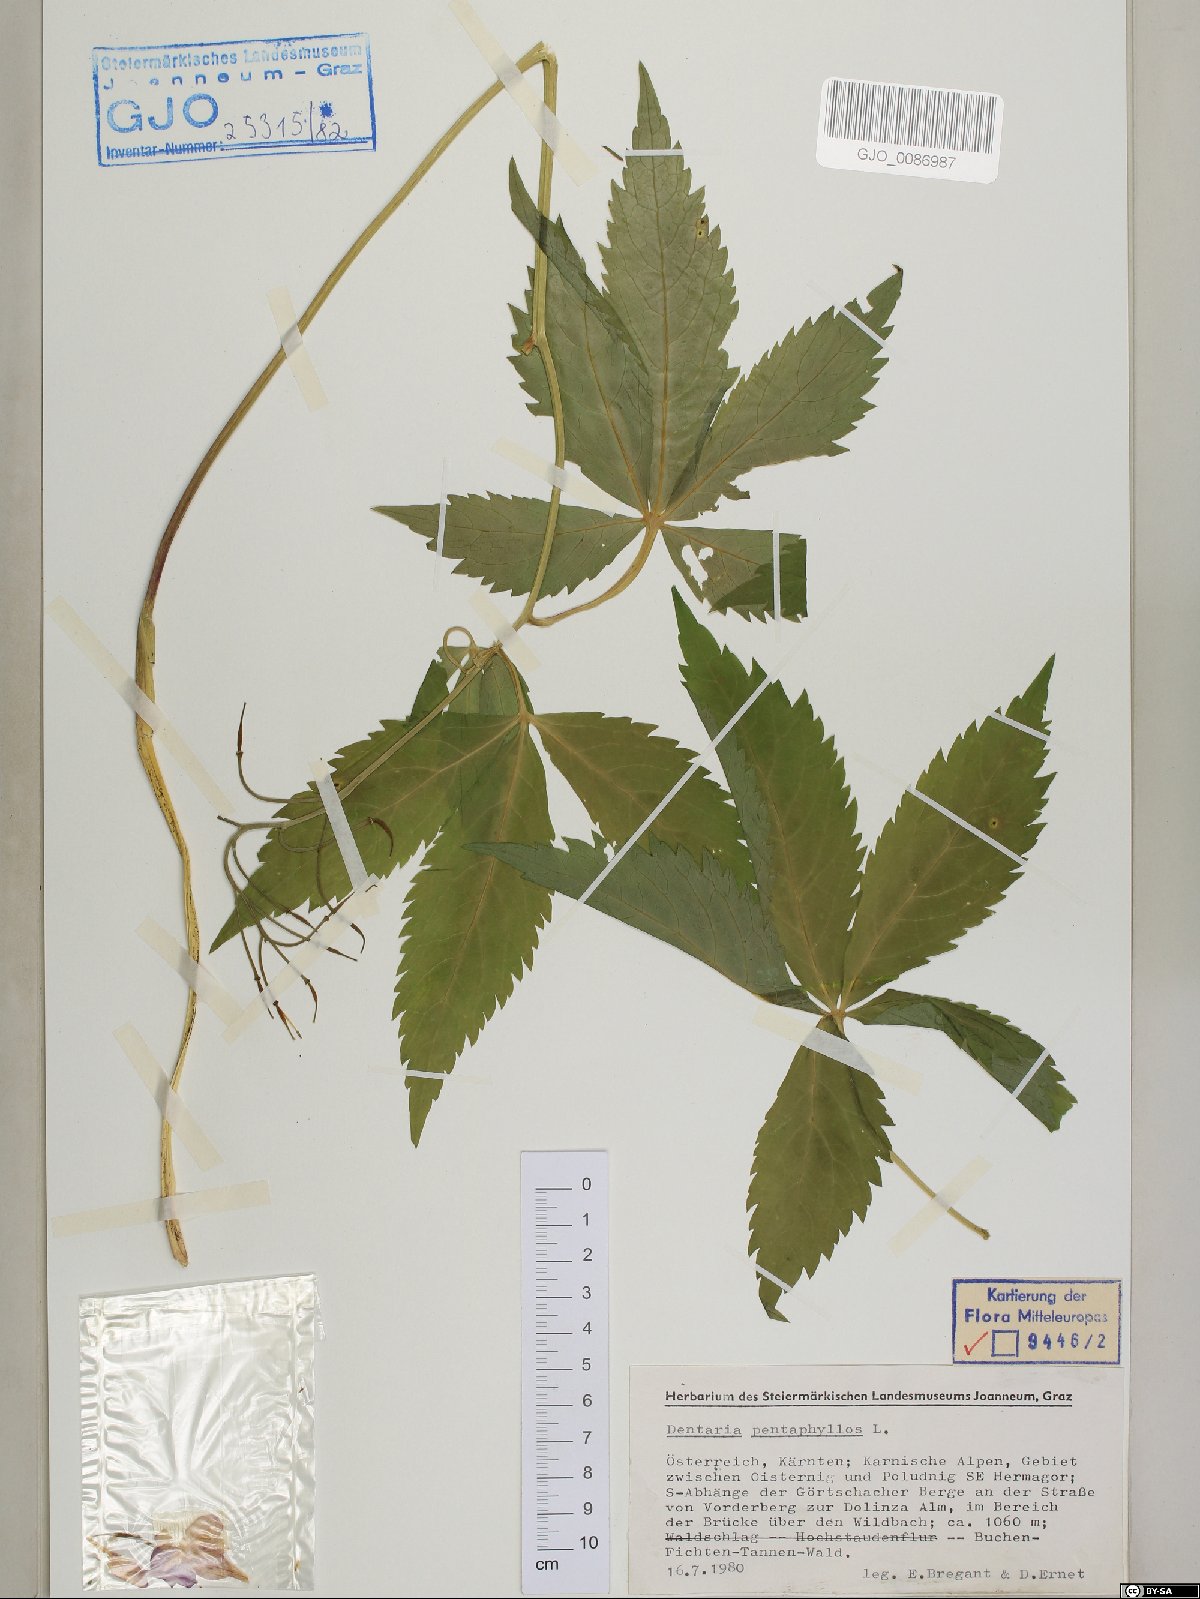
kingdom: Plantae
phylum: Tracheophyta
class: Magnoliopsida
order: Brassicales
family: Brassicaceae
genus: Cardamine
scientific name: Cardamine pentaphyllos
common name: Five-leaflet bitter-cress
